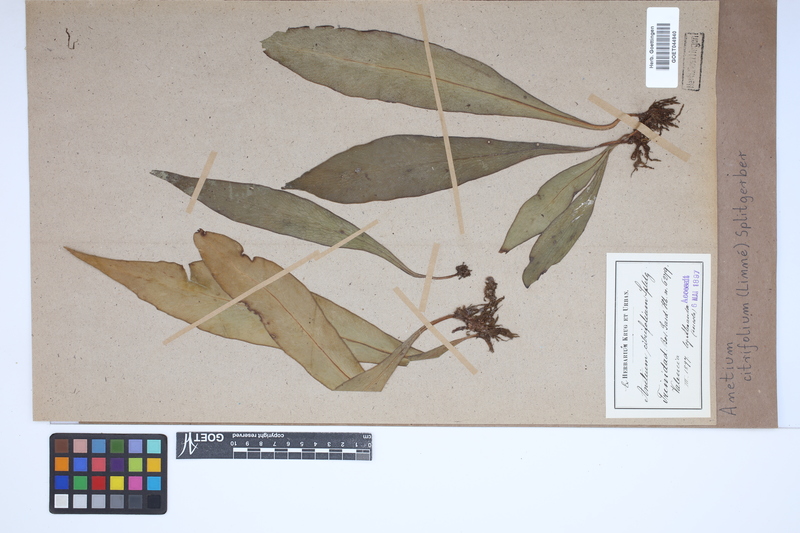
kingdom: Plantae
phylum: Tracheophyta
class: Polypodiopsida
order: Polypodiales
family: Pteridaceae
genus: Polytaenium
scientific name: Polytaenium citrifolium
